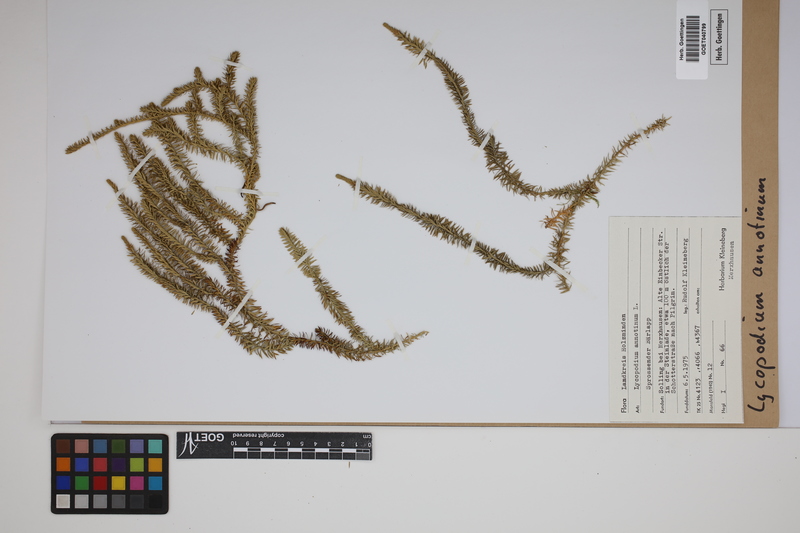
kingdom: Plantae
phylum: Tracheophyta
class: Lycopodiopsida
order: Lycopodiales
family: Lycopodiaceae
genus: Spinulum
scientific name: Spinulum annotinum
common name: Interrupted club-moss
